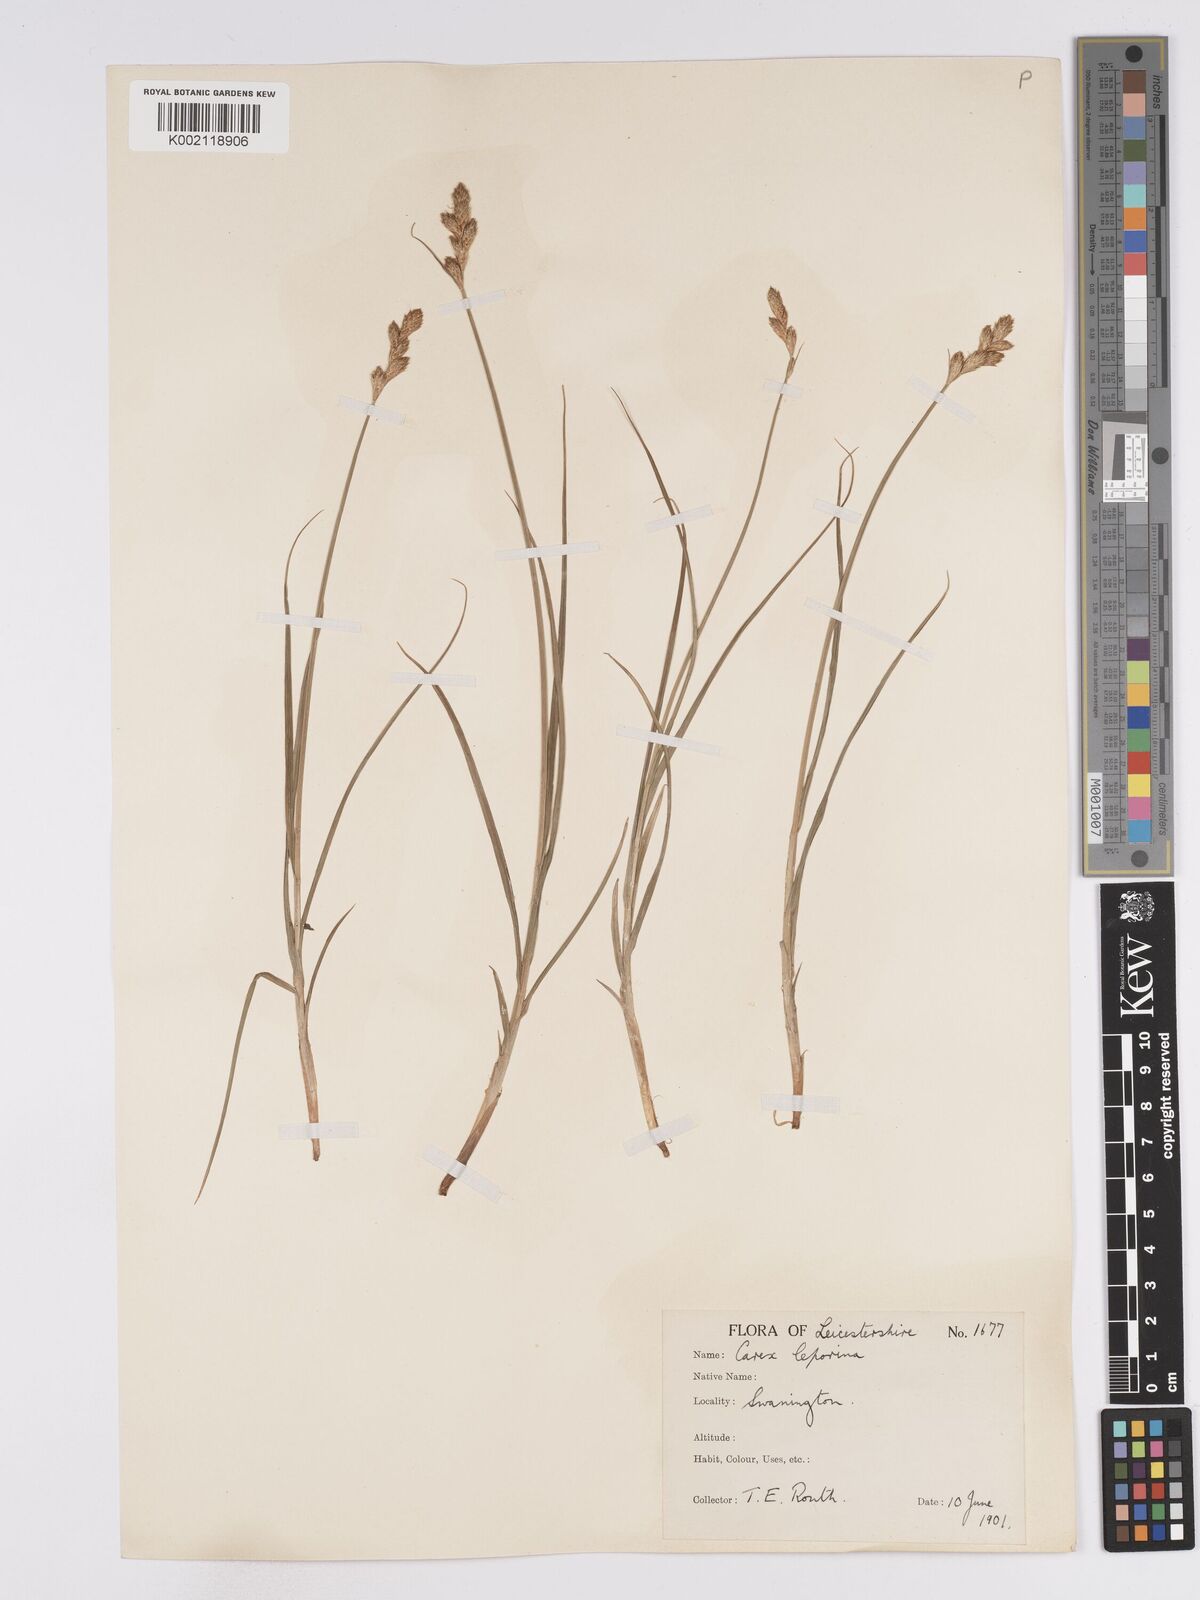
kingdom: Plantae
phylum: Tracheophyta
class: Liliopsida
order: Poales
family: Cyperaceae
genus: Carex
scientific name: Carex leporina
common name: Oval sedge
